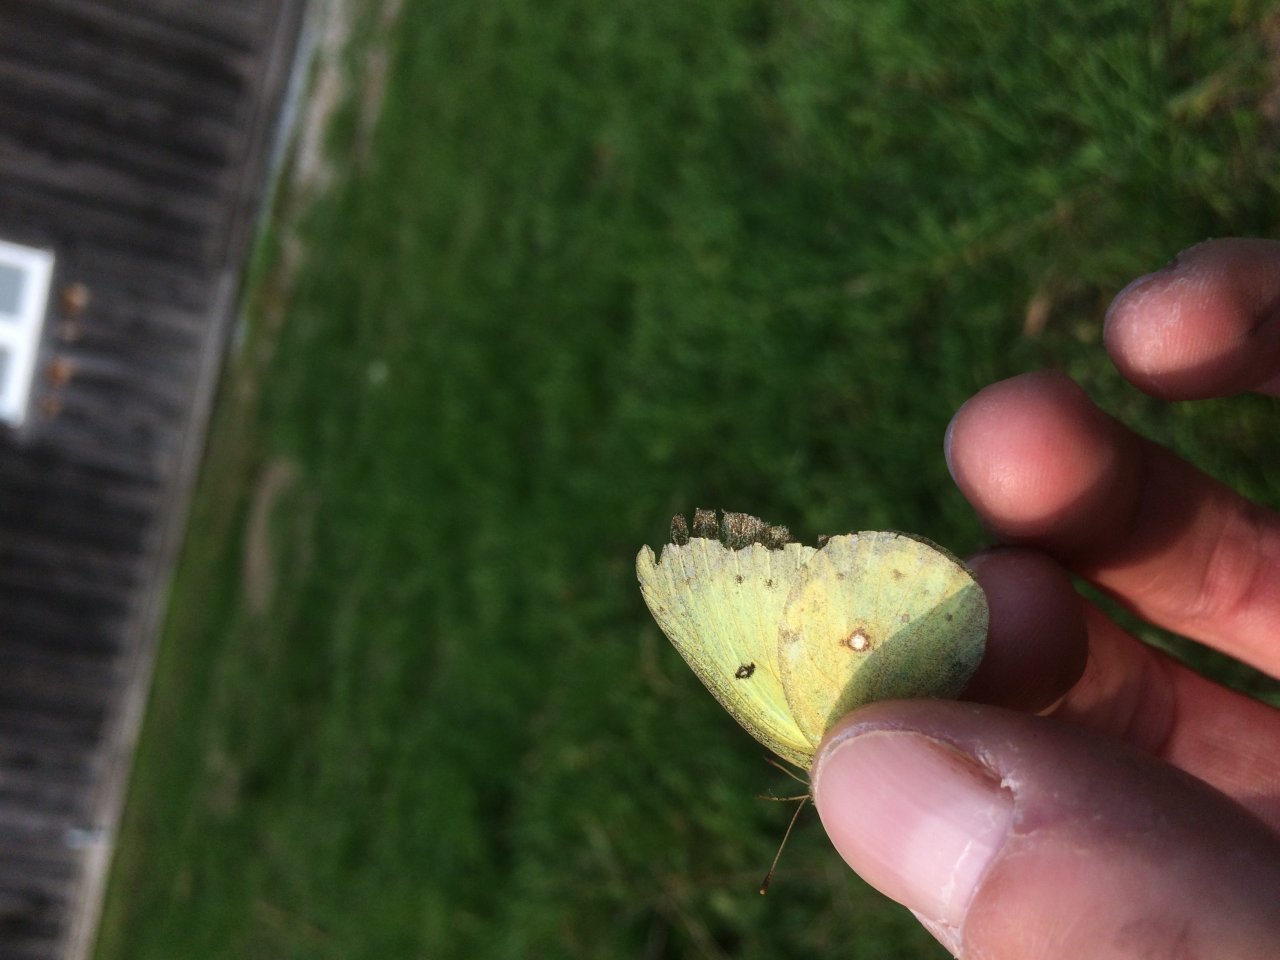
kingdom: Animalia
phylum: Arthropoda
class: Insecta
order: Lepidoptera
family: Pieridae
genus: Colias
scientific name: Colias philodice
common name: Clouded Sulphur
